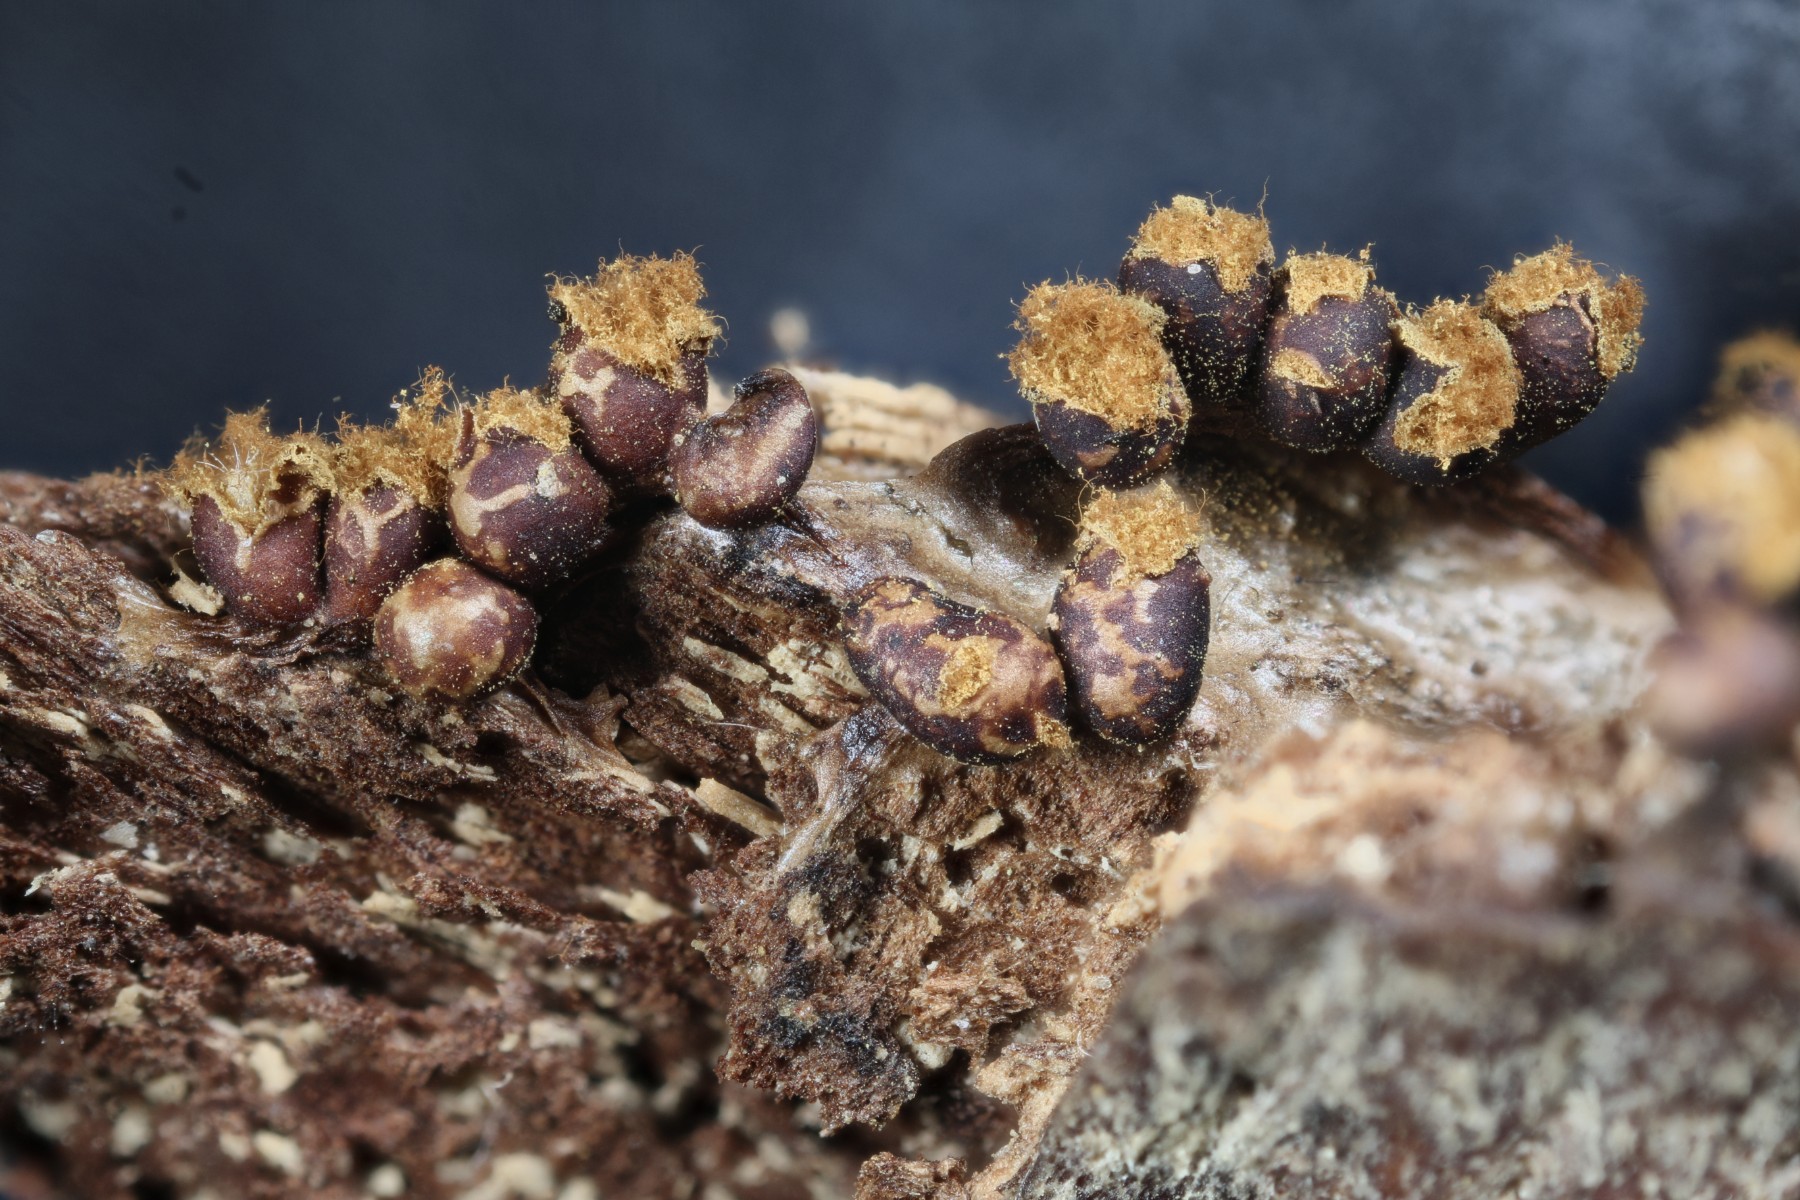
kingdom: Protozoa
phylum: Mycetozoa
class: Myxomycetes
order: Trichiales
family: Trichiaceae
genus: Trichia
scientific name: Trichia botrytis
